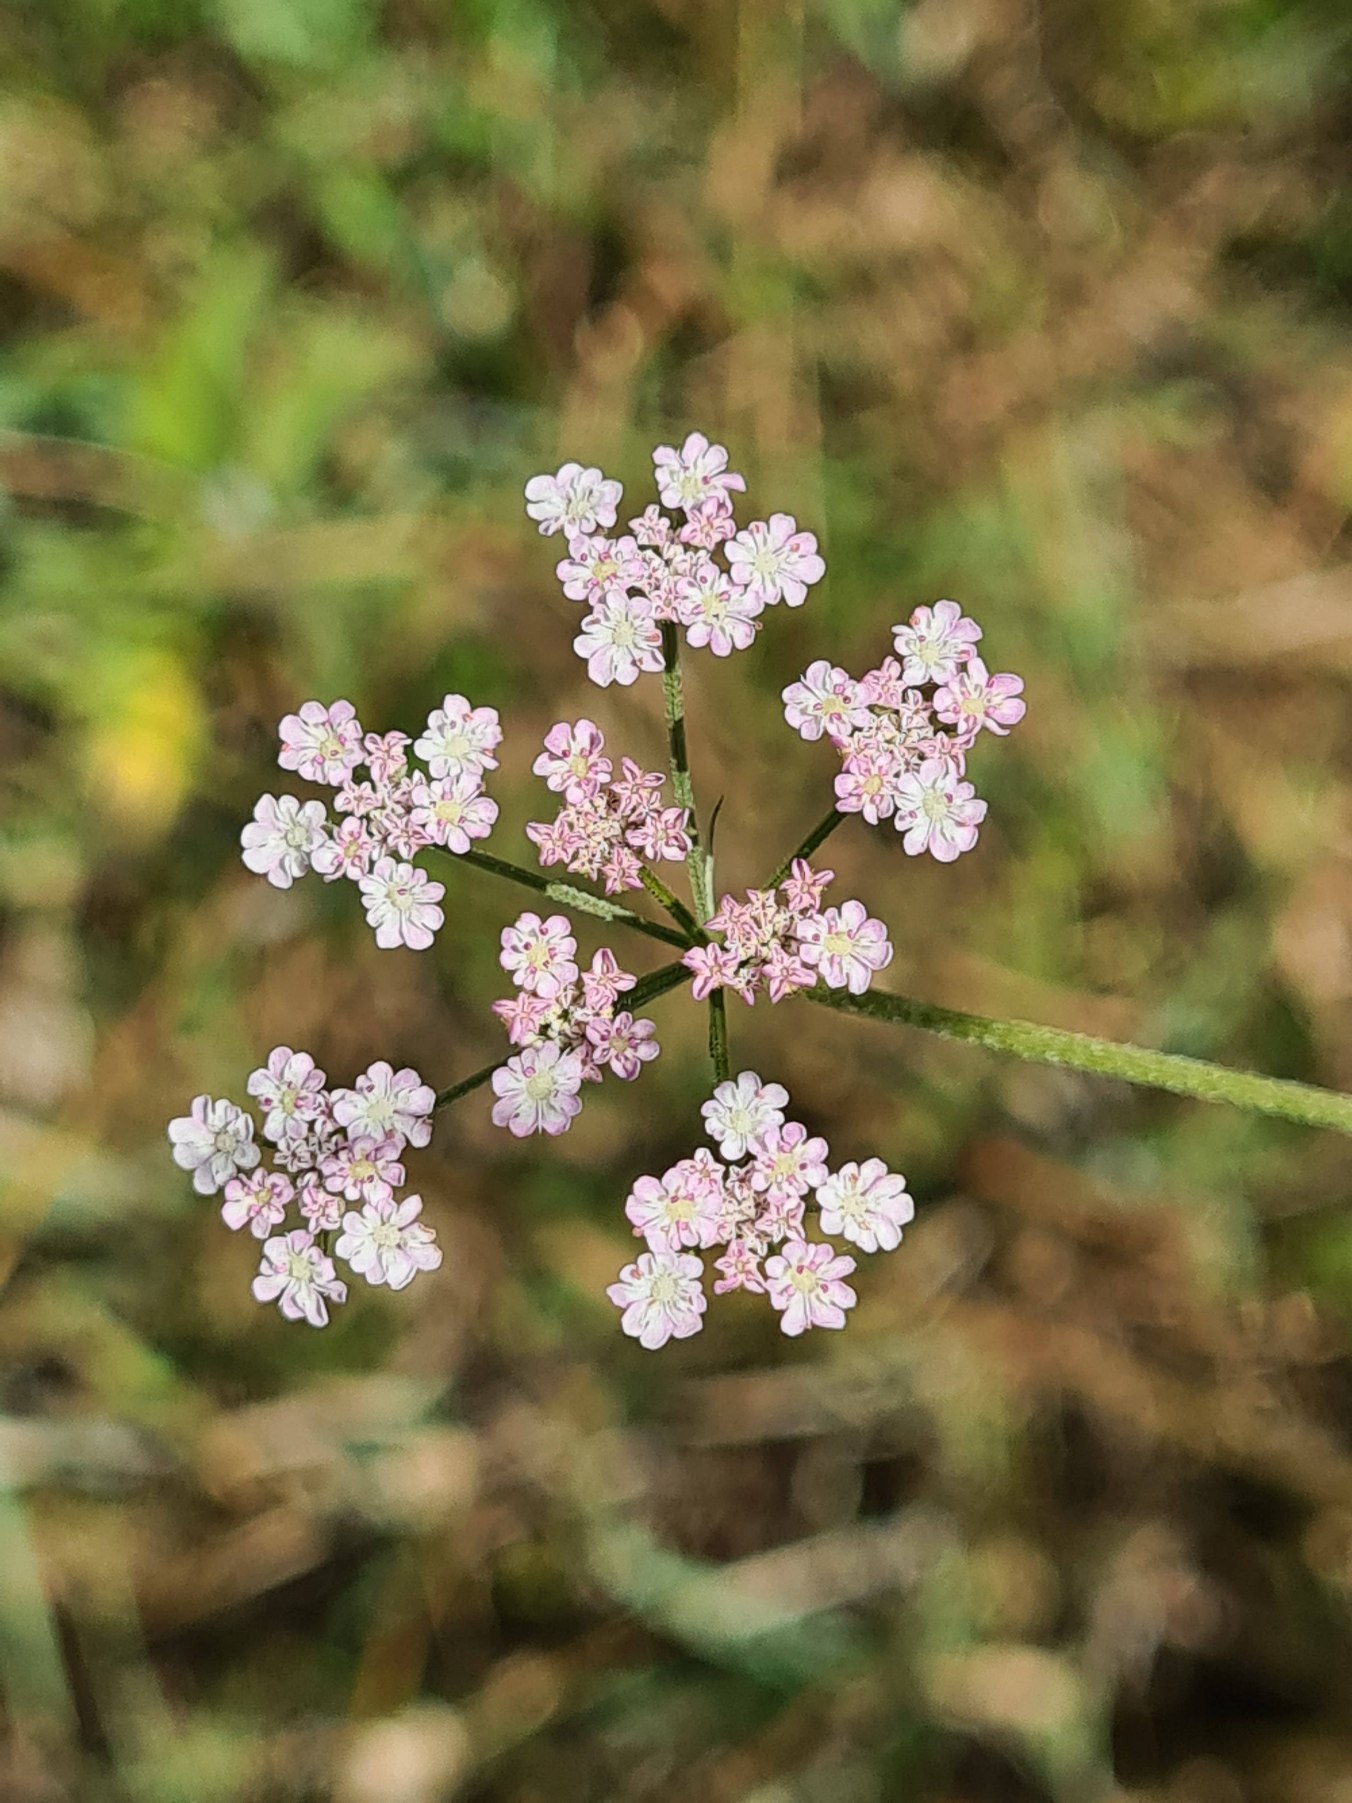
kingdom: Plantae
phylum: Tracheophyta
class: Magnoliopsida
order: Apiales
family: Apiaceae
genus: Torilis
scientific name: Torilis japonica
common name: Hvas randfrø
